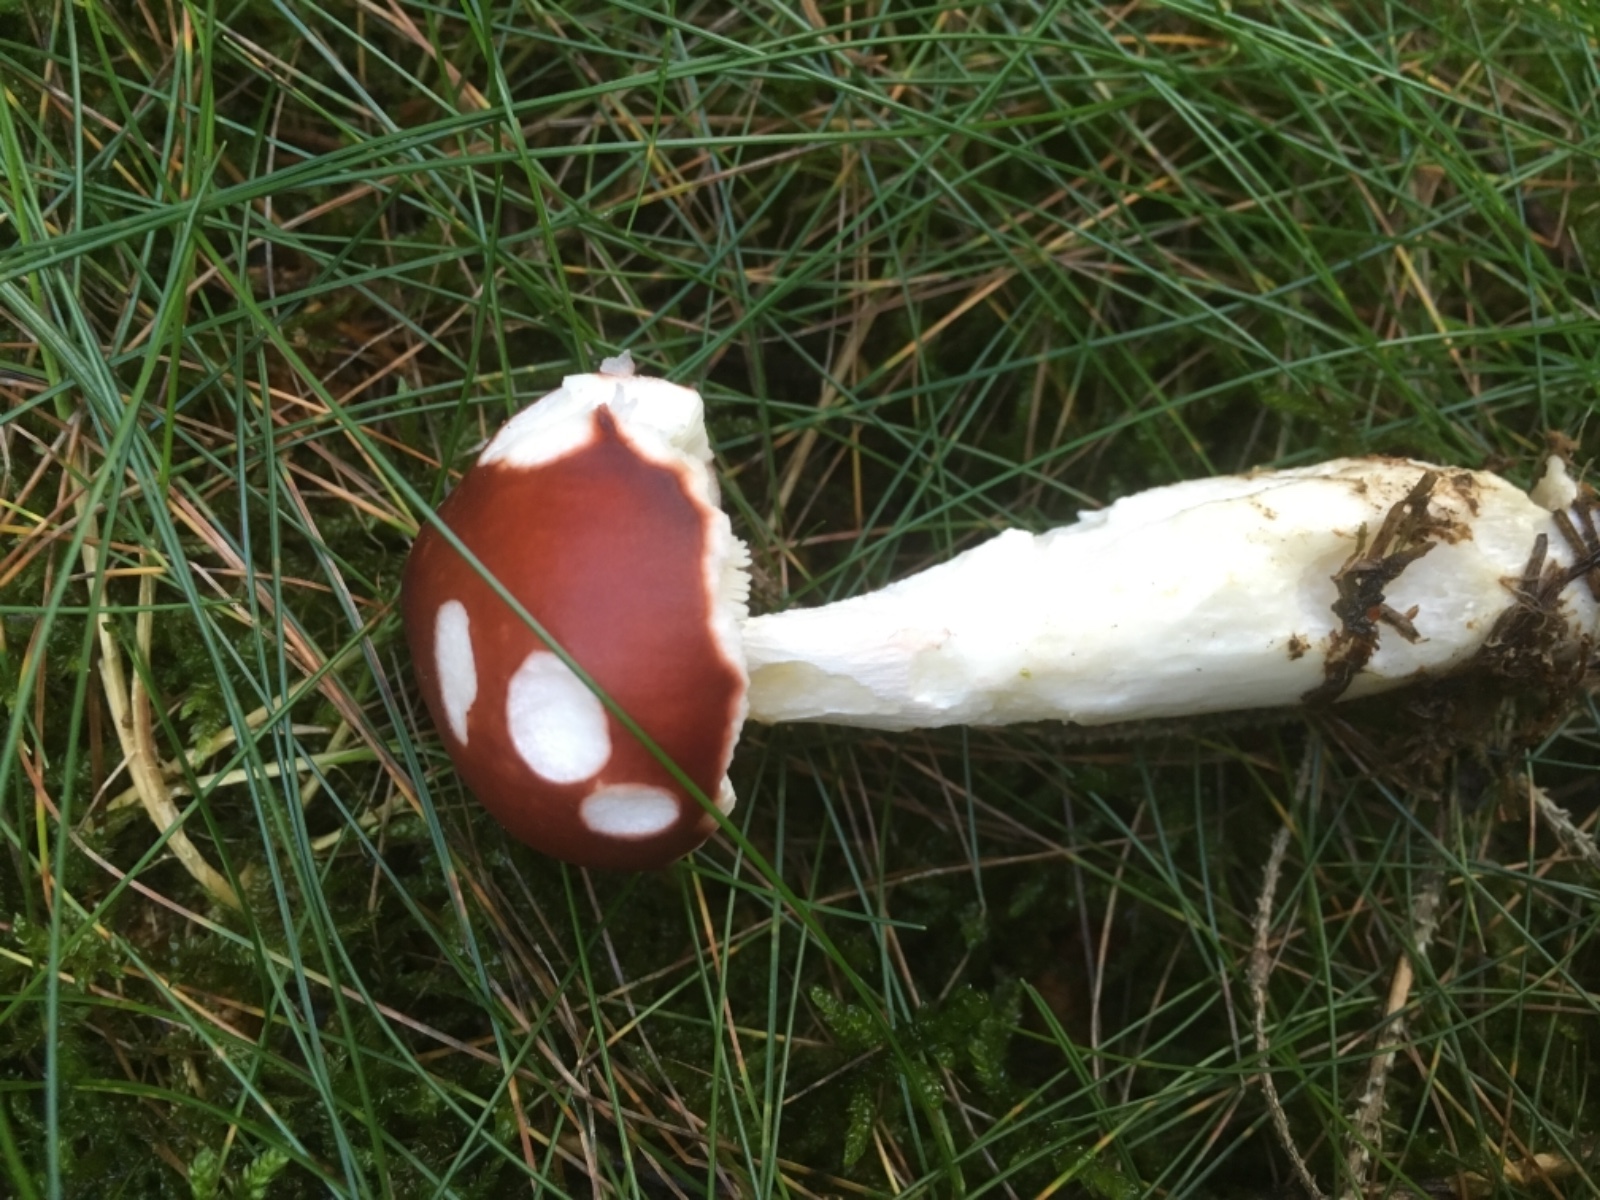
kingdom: Fungi
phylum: Basidiomycota
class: Agaricomycetes
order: Russulales
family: Russulaceae
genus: Russula
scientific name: Russula paludosa
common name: prægtig skørhat
